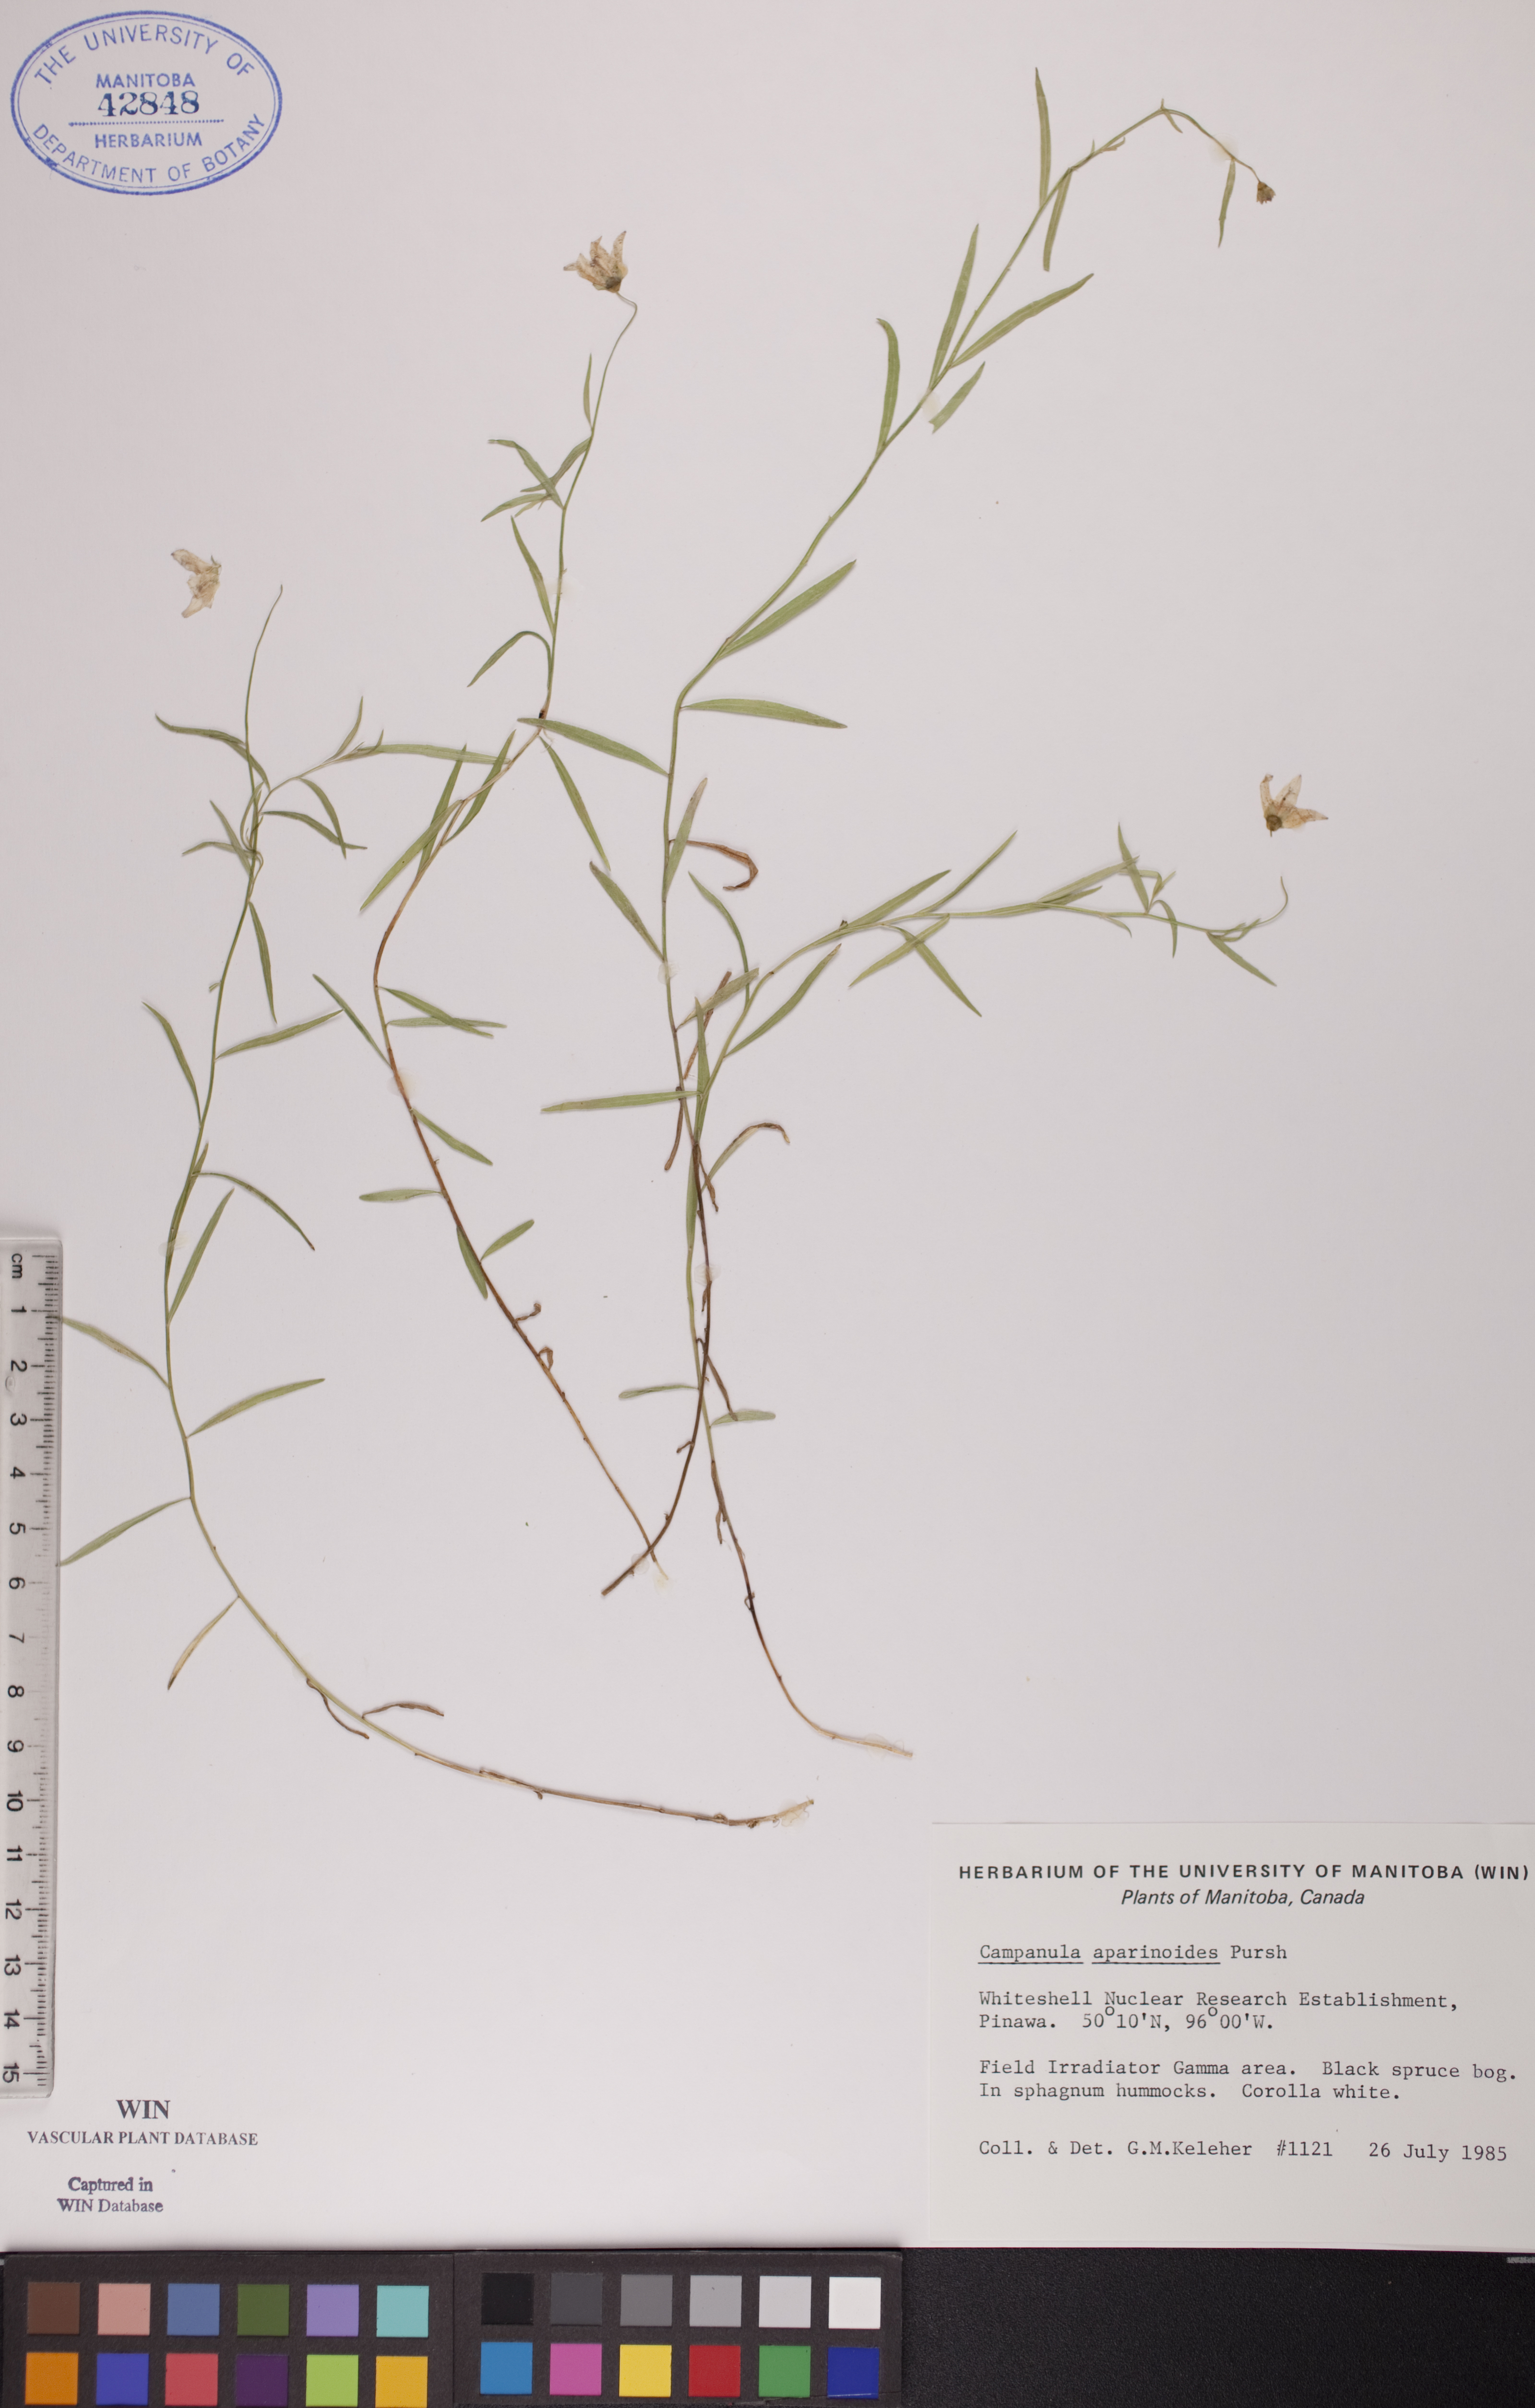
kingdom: Plantae
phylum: Tracheophyta
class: Magnoliopsida
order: Asterales
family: Campanulaceae
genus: Palustricodon
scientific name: Palustricodon aparinoides
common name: Bedstraw bellflower
